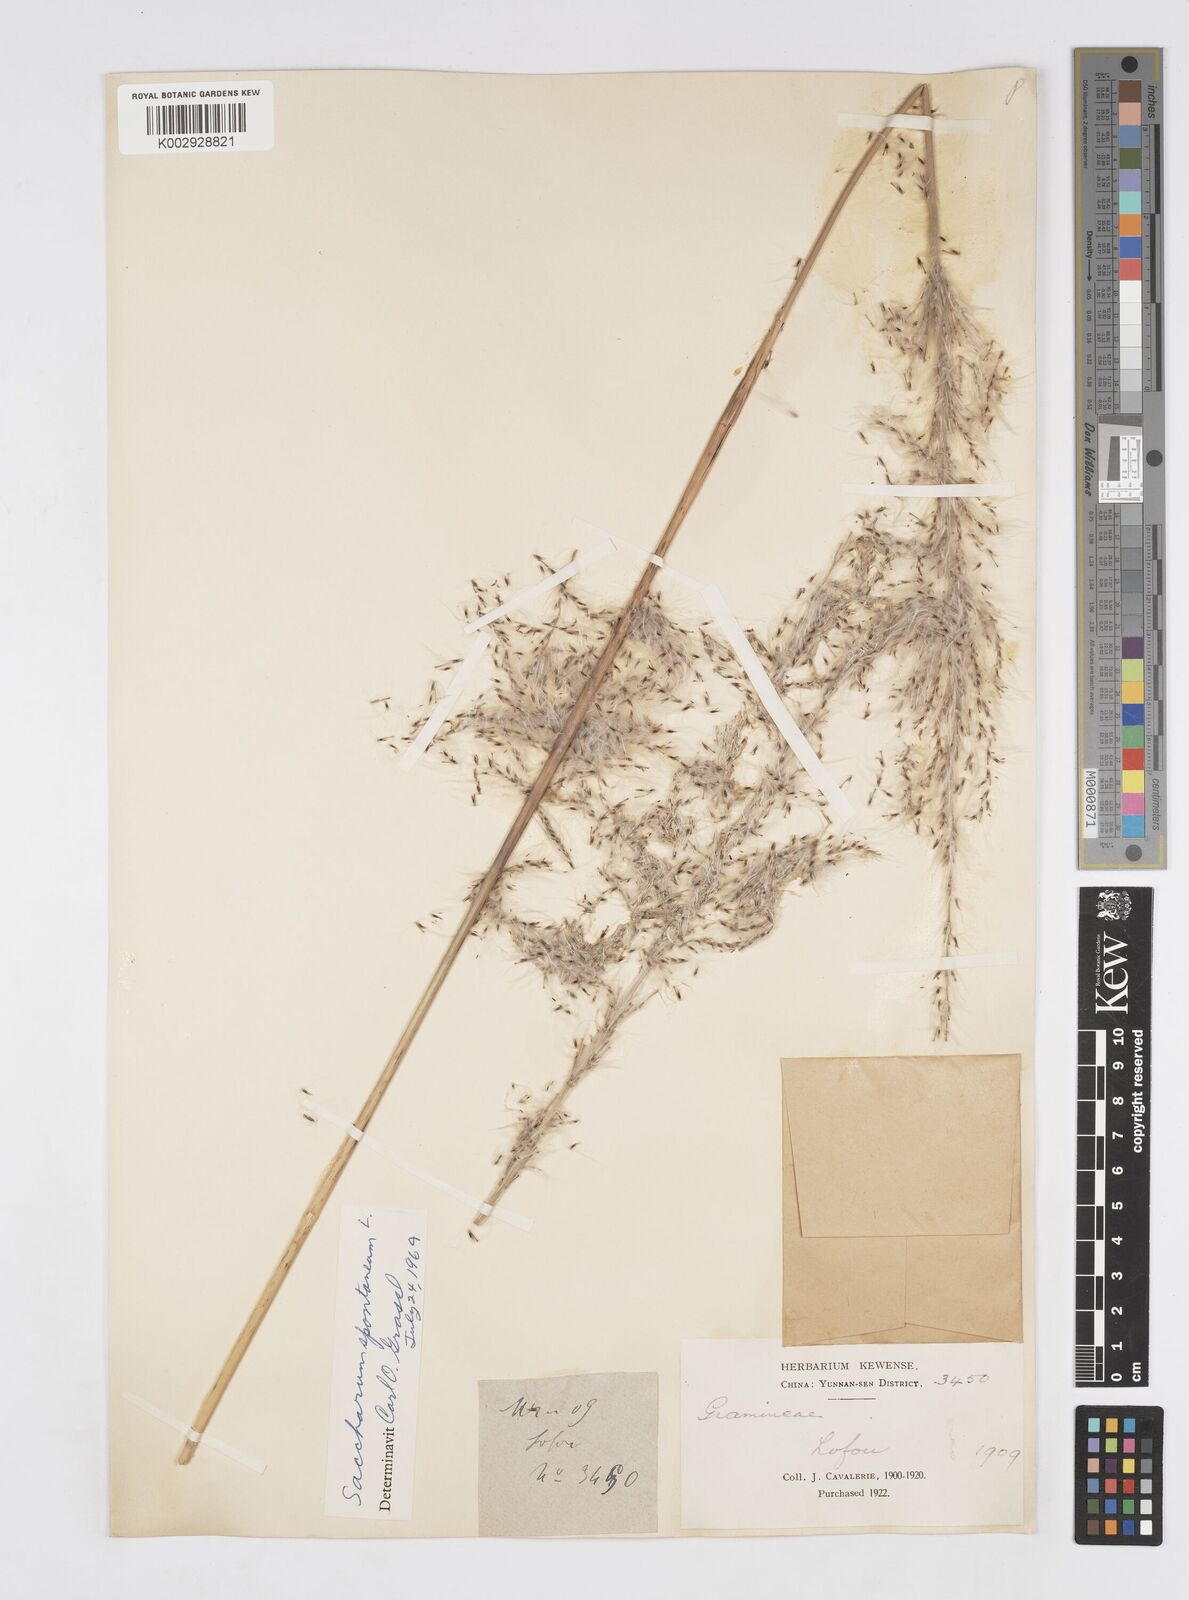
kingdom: Plantae
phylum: Tracheophyta
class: Liliopsida
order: Poales
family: Poaceae
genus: Saccharum
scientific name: Saccharum spontaneum
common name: Wild sugarcane
